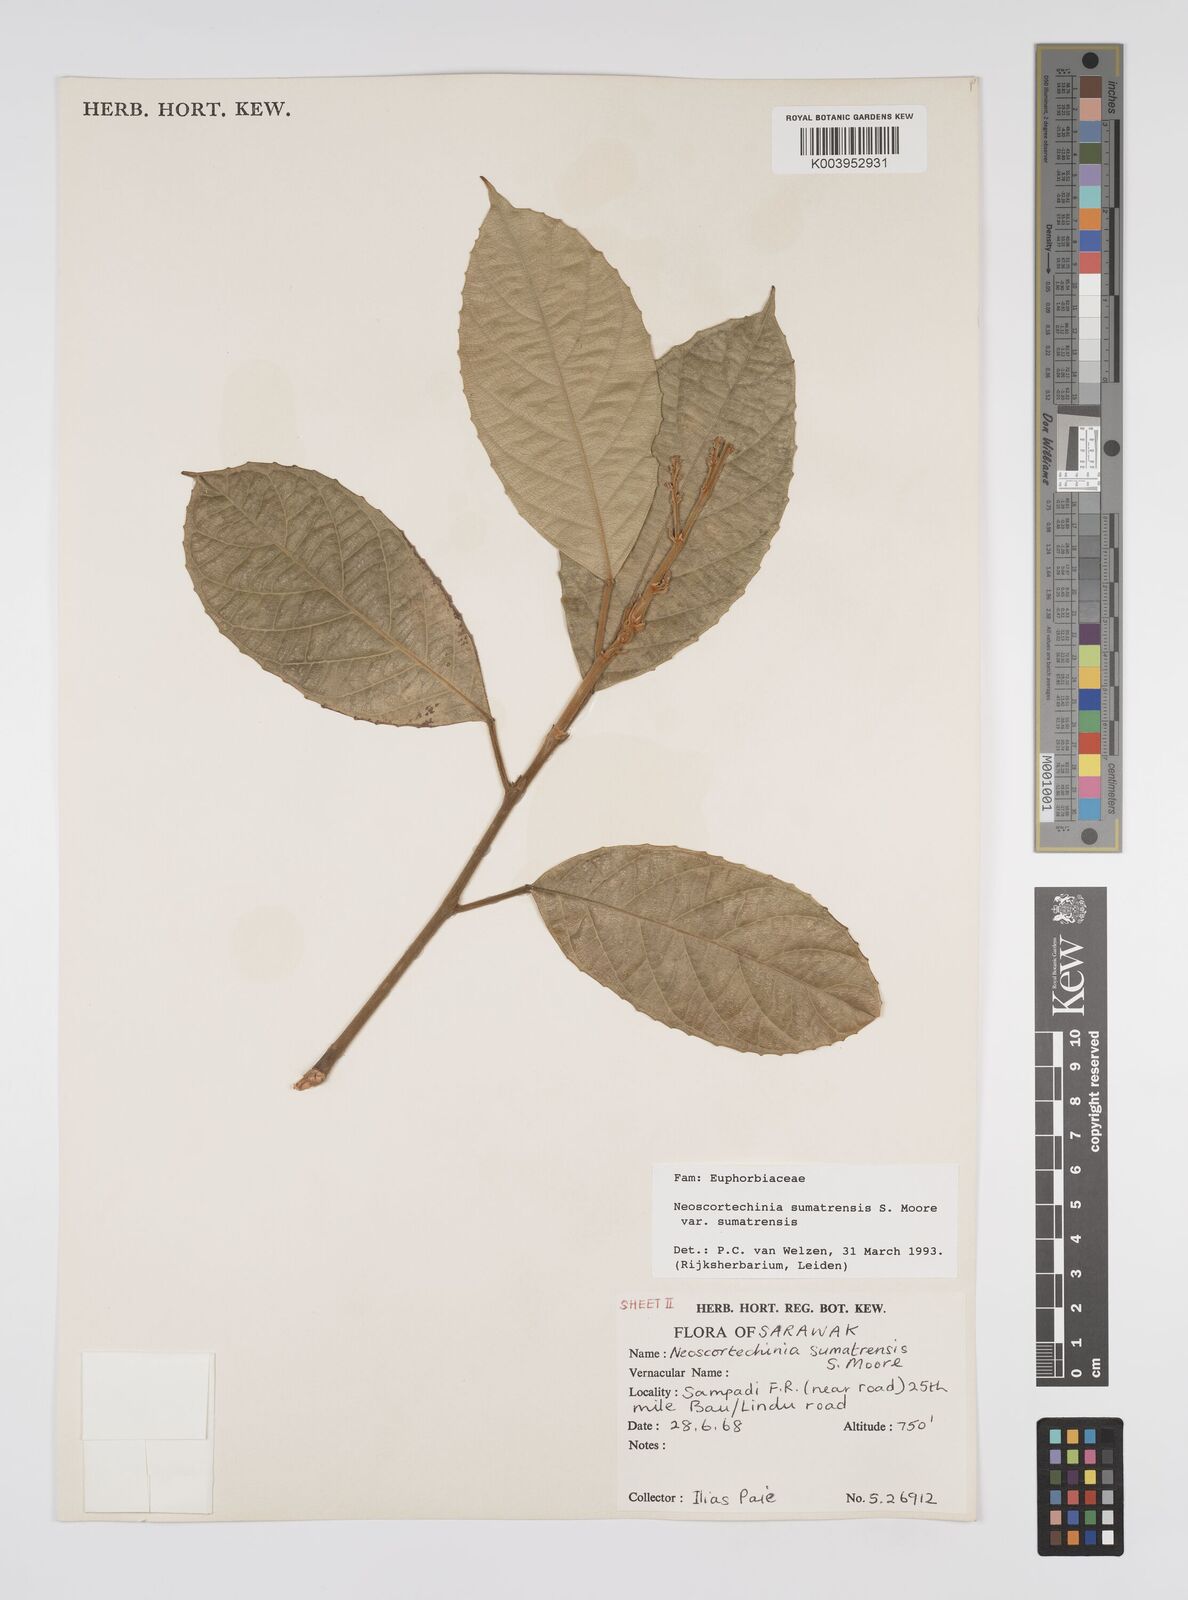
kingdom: Plantae
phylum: Tracheophyta
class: Magnoliopsida
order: Malpighiales
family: Euphorbiaceae
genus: Neoscortechinia
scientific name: Neoscortechinia sumatrensis
